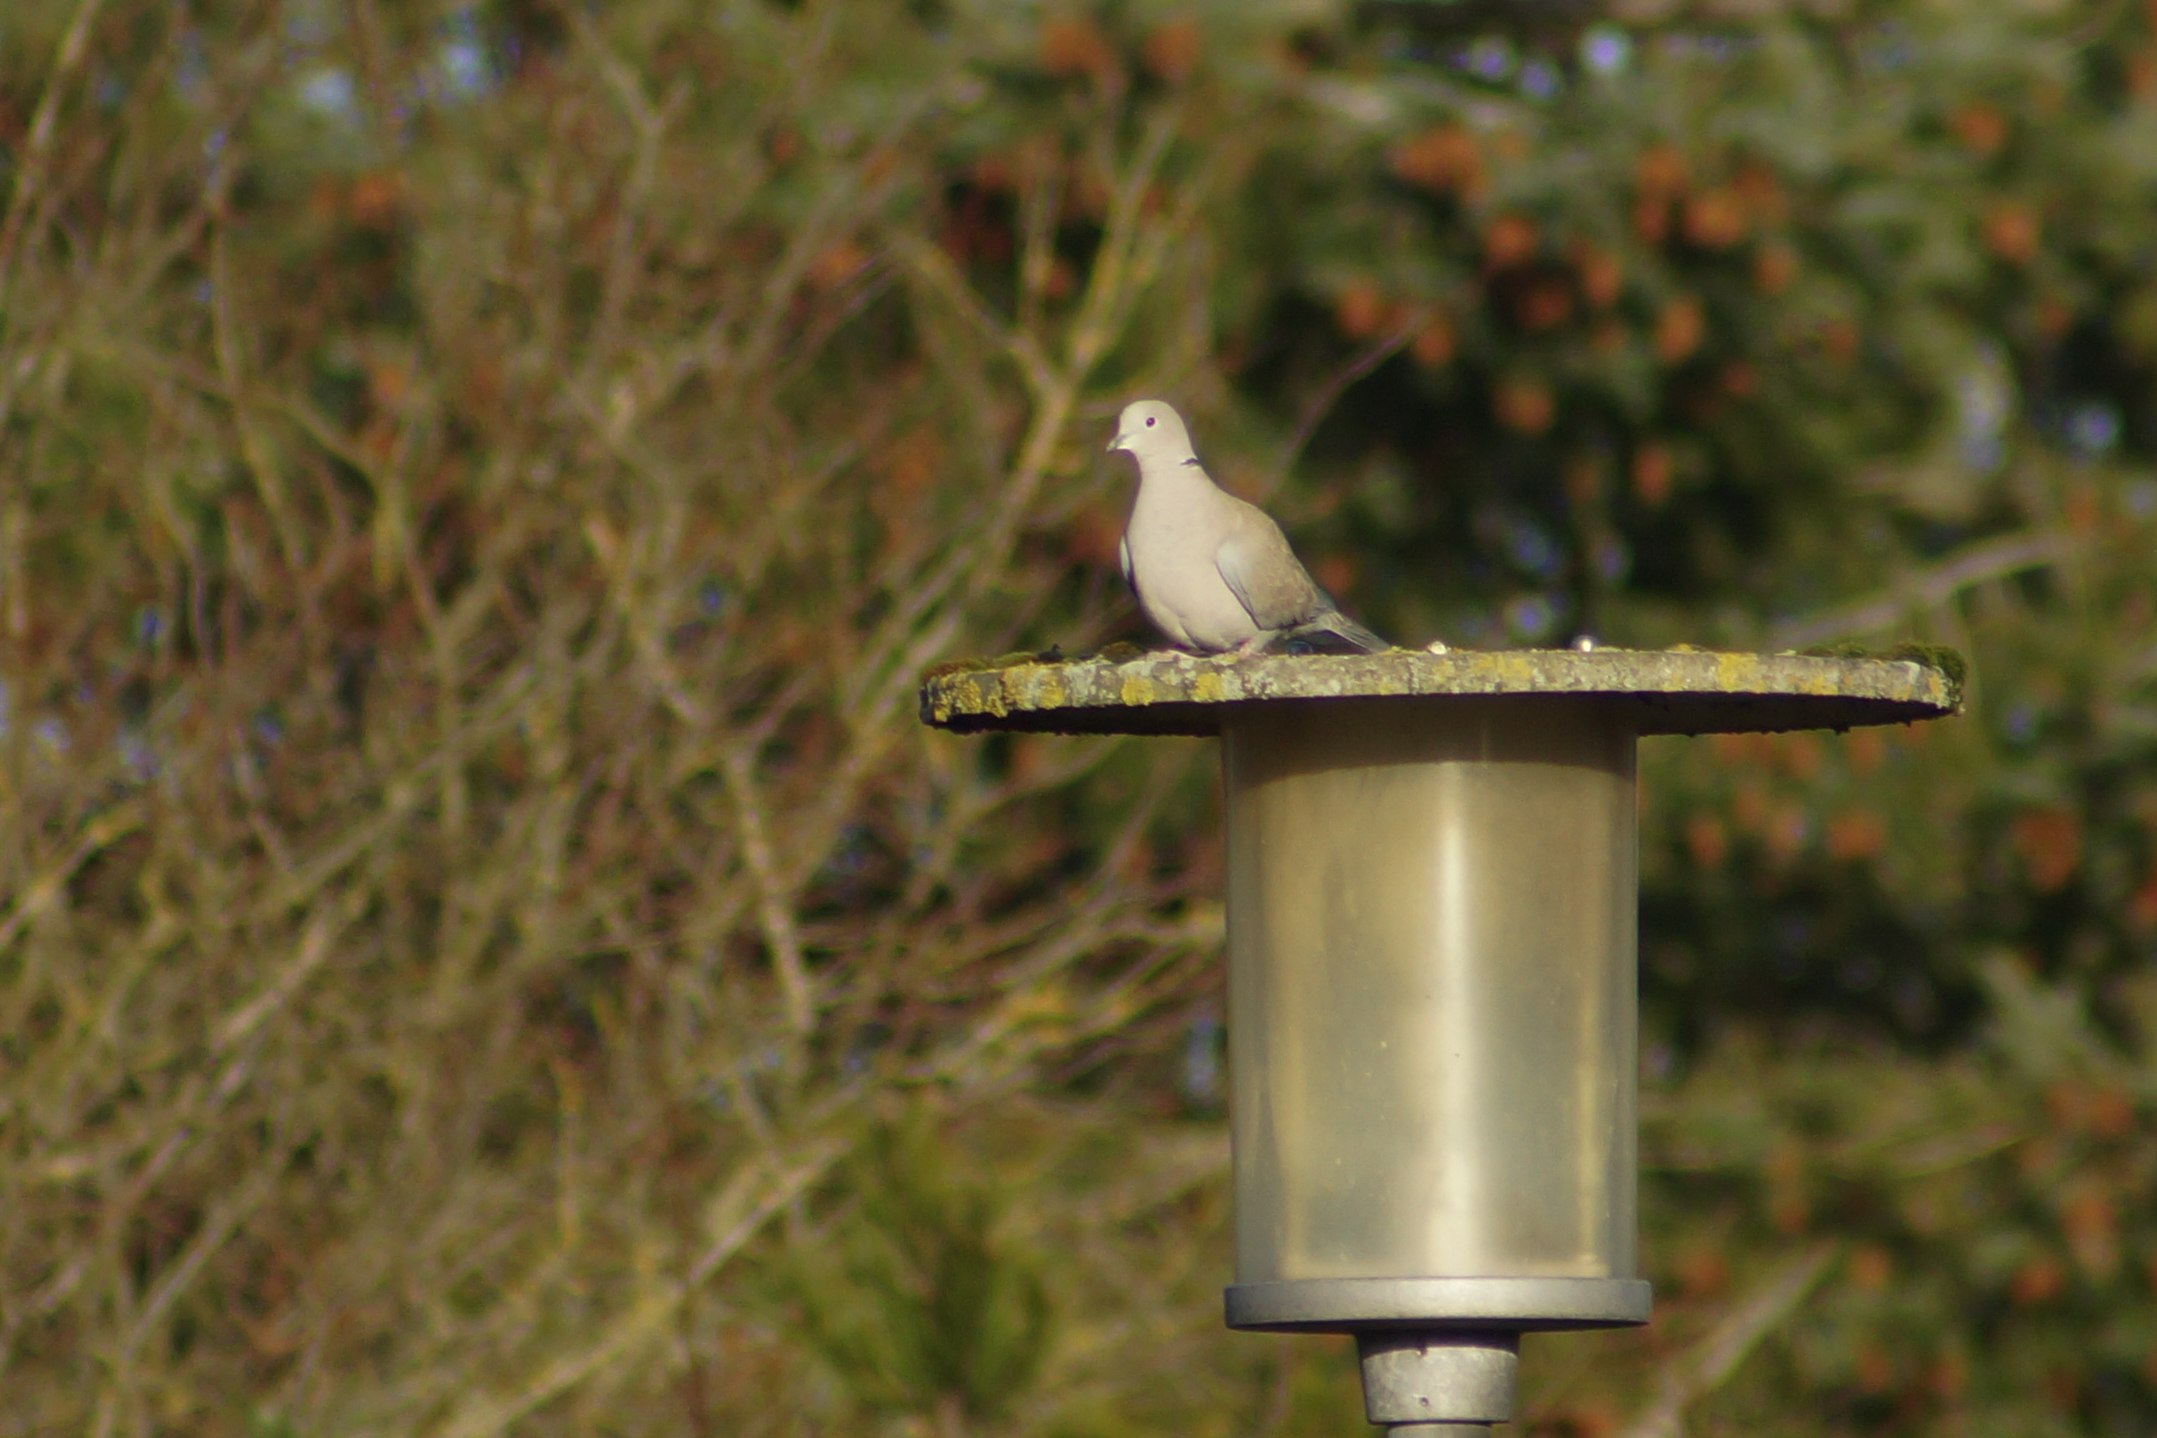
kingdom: Animalia
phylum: Chordata
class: Aves
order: Columbiformes
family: Columbidae
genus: Streptopelia
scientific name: Streptopelia decaocto
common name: Tyrkerdue
